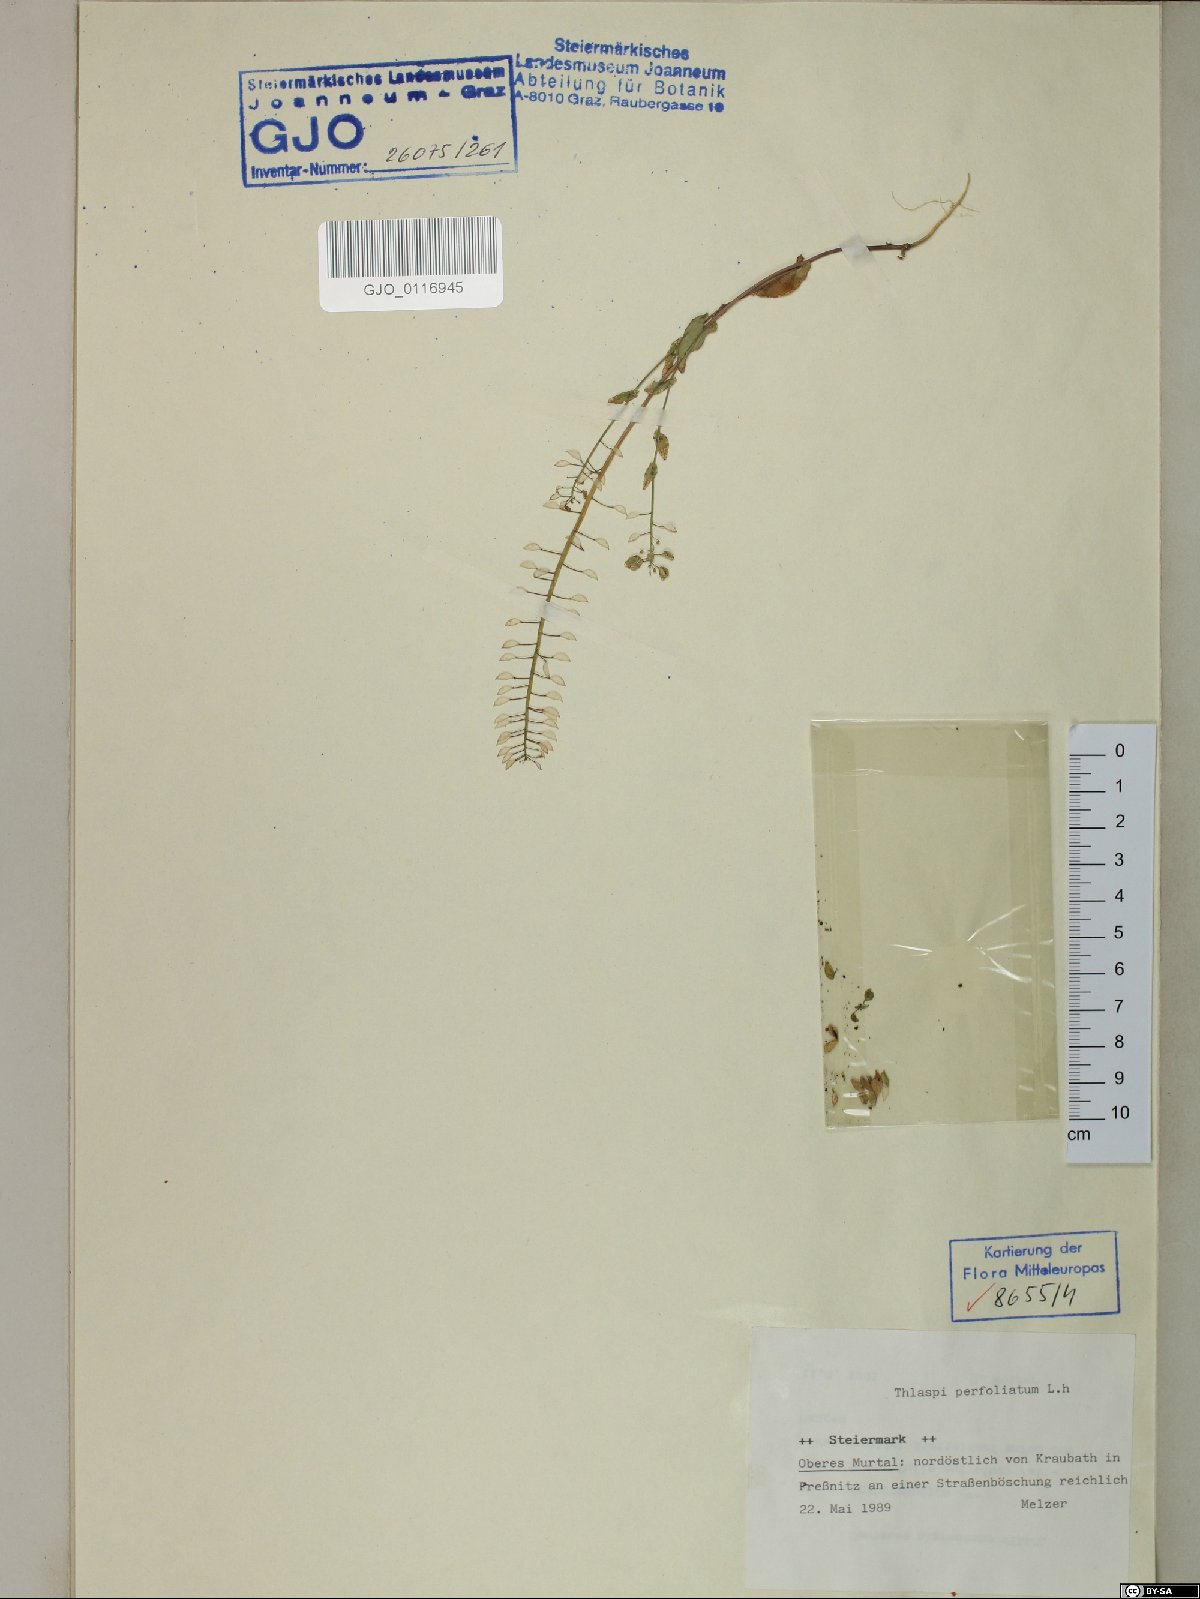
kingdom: Plantae
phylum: Tracheophyta
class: Magnoliopsida
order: Brassicales
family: Brassicaceae
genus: Noccaea
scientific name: Noccaea perfoliata
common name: Perfoliate pennycress
